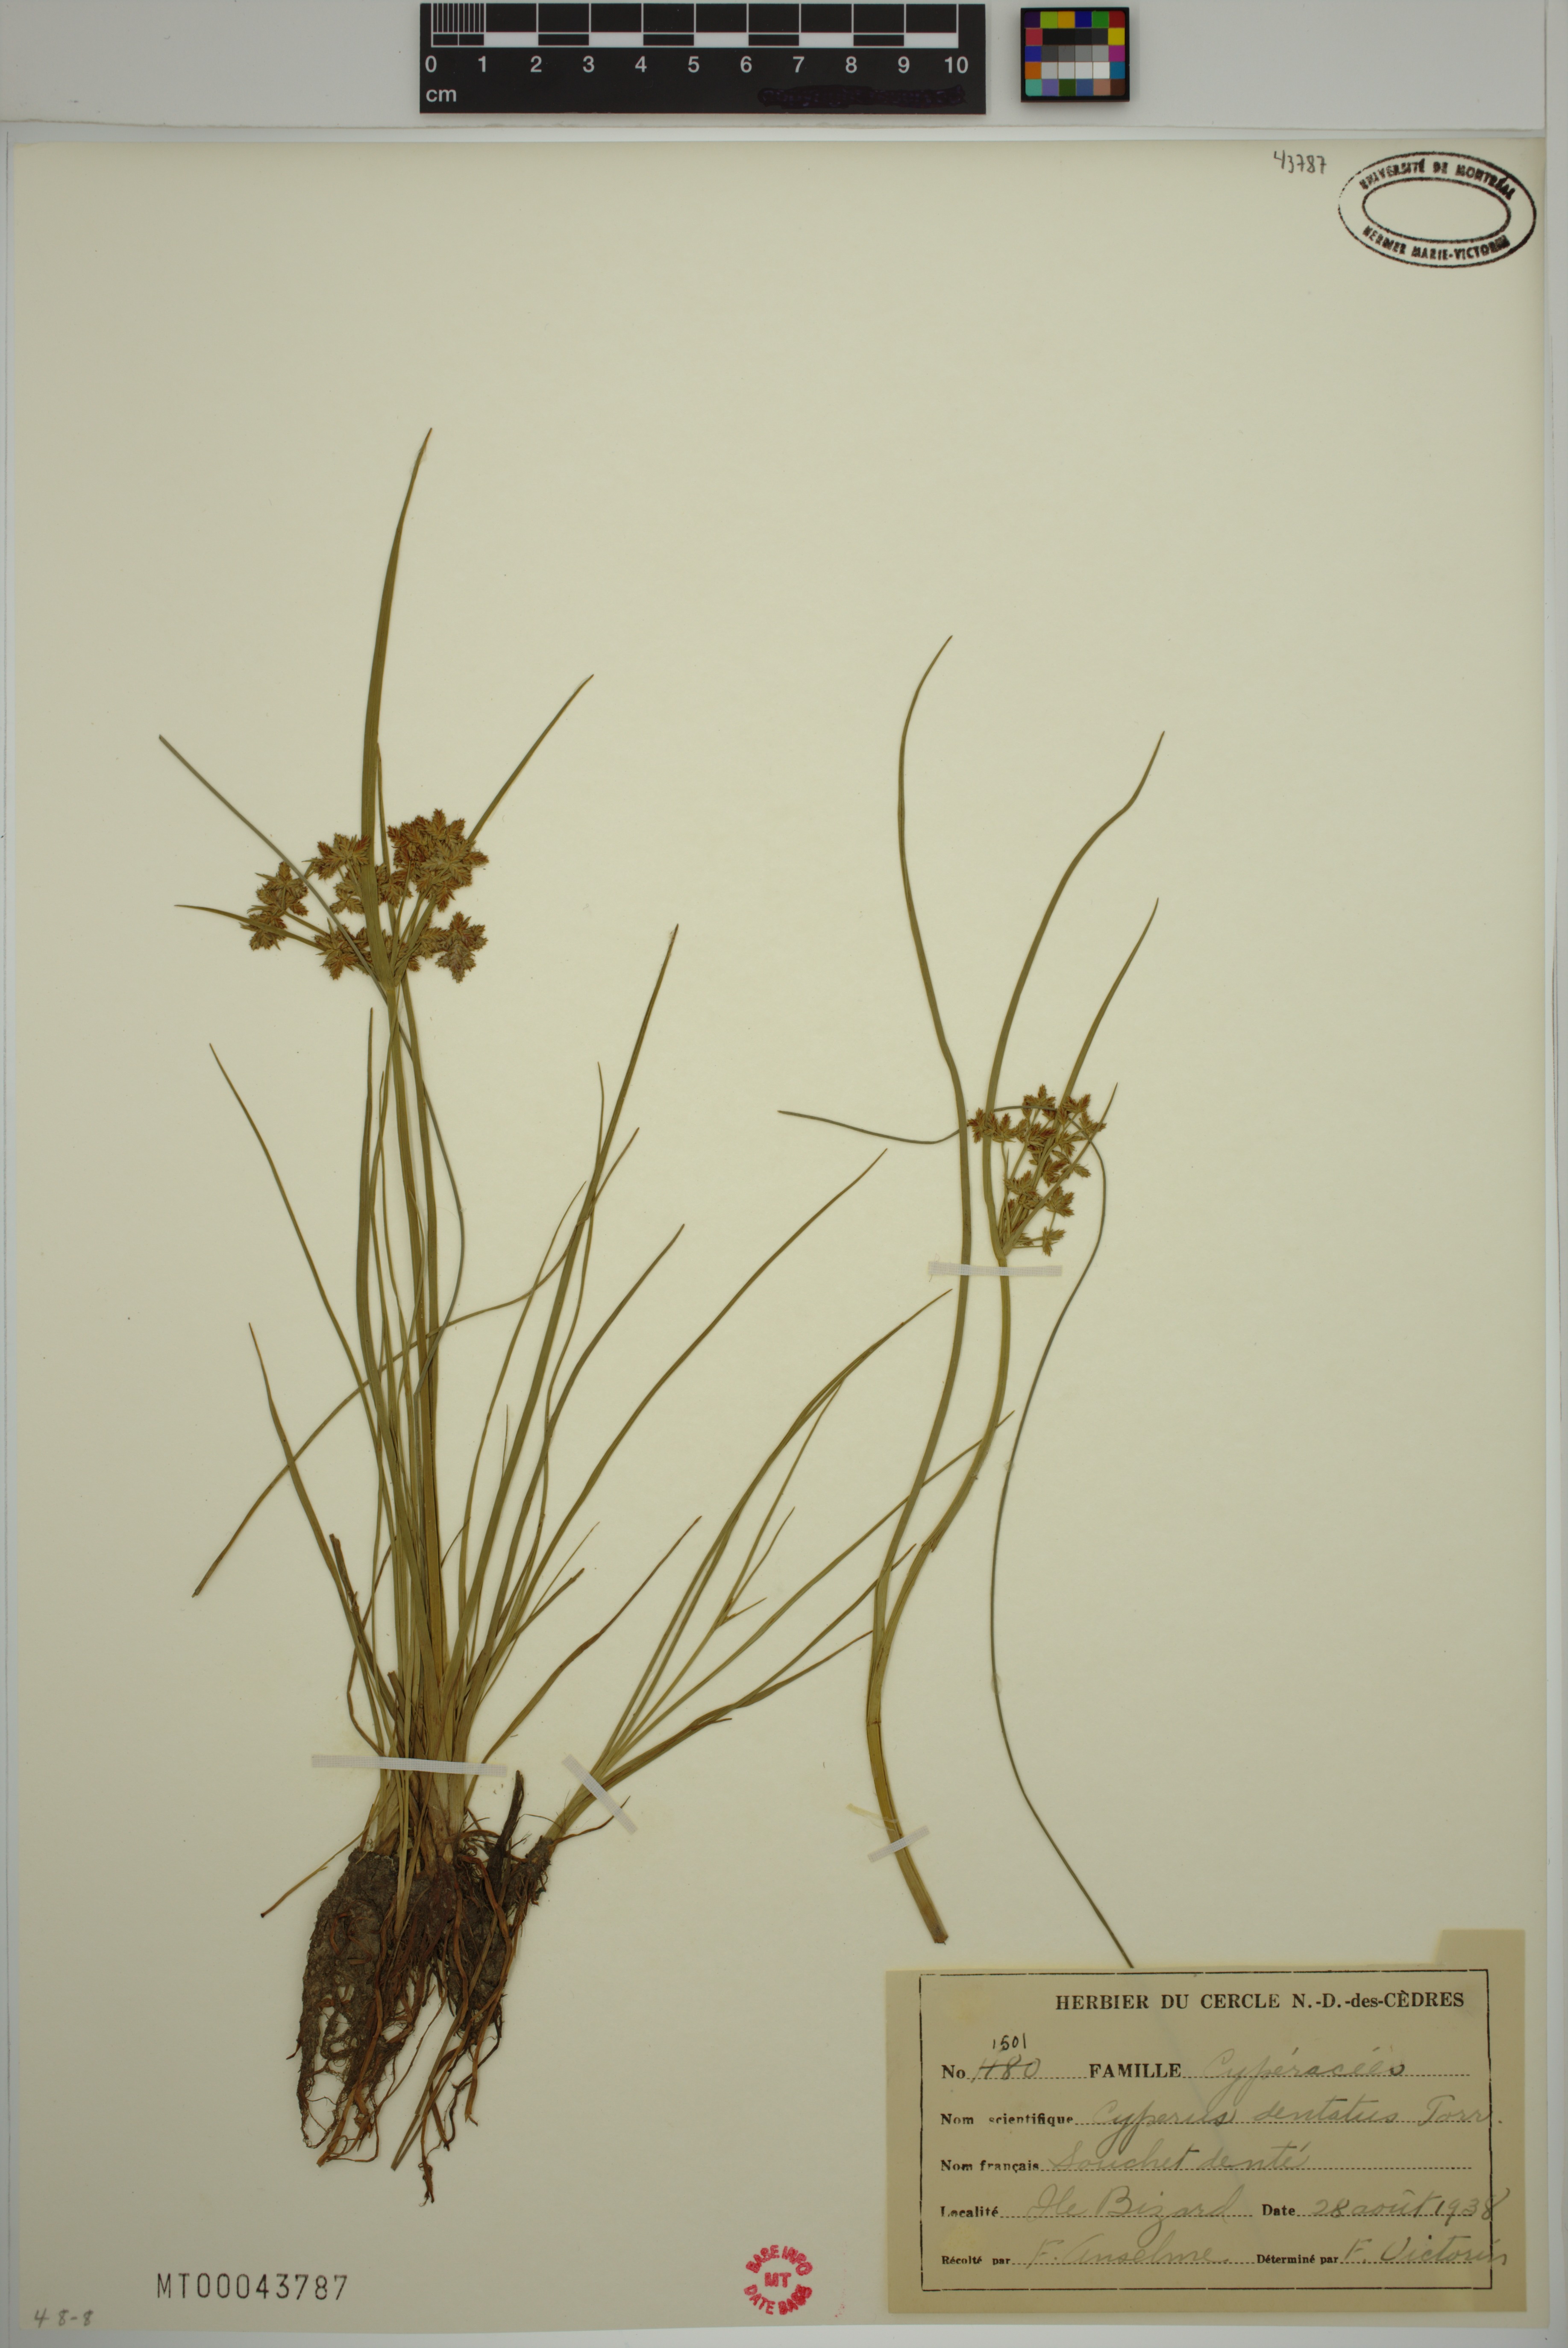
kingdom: Plantae
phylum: Tracheophyta
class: Liliopsida
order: Poales
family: Cyperaceae
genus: Cyperus
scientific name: Cyperus dentatus
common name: Dentate umbrella sedge
